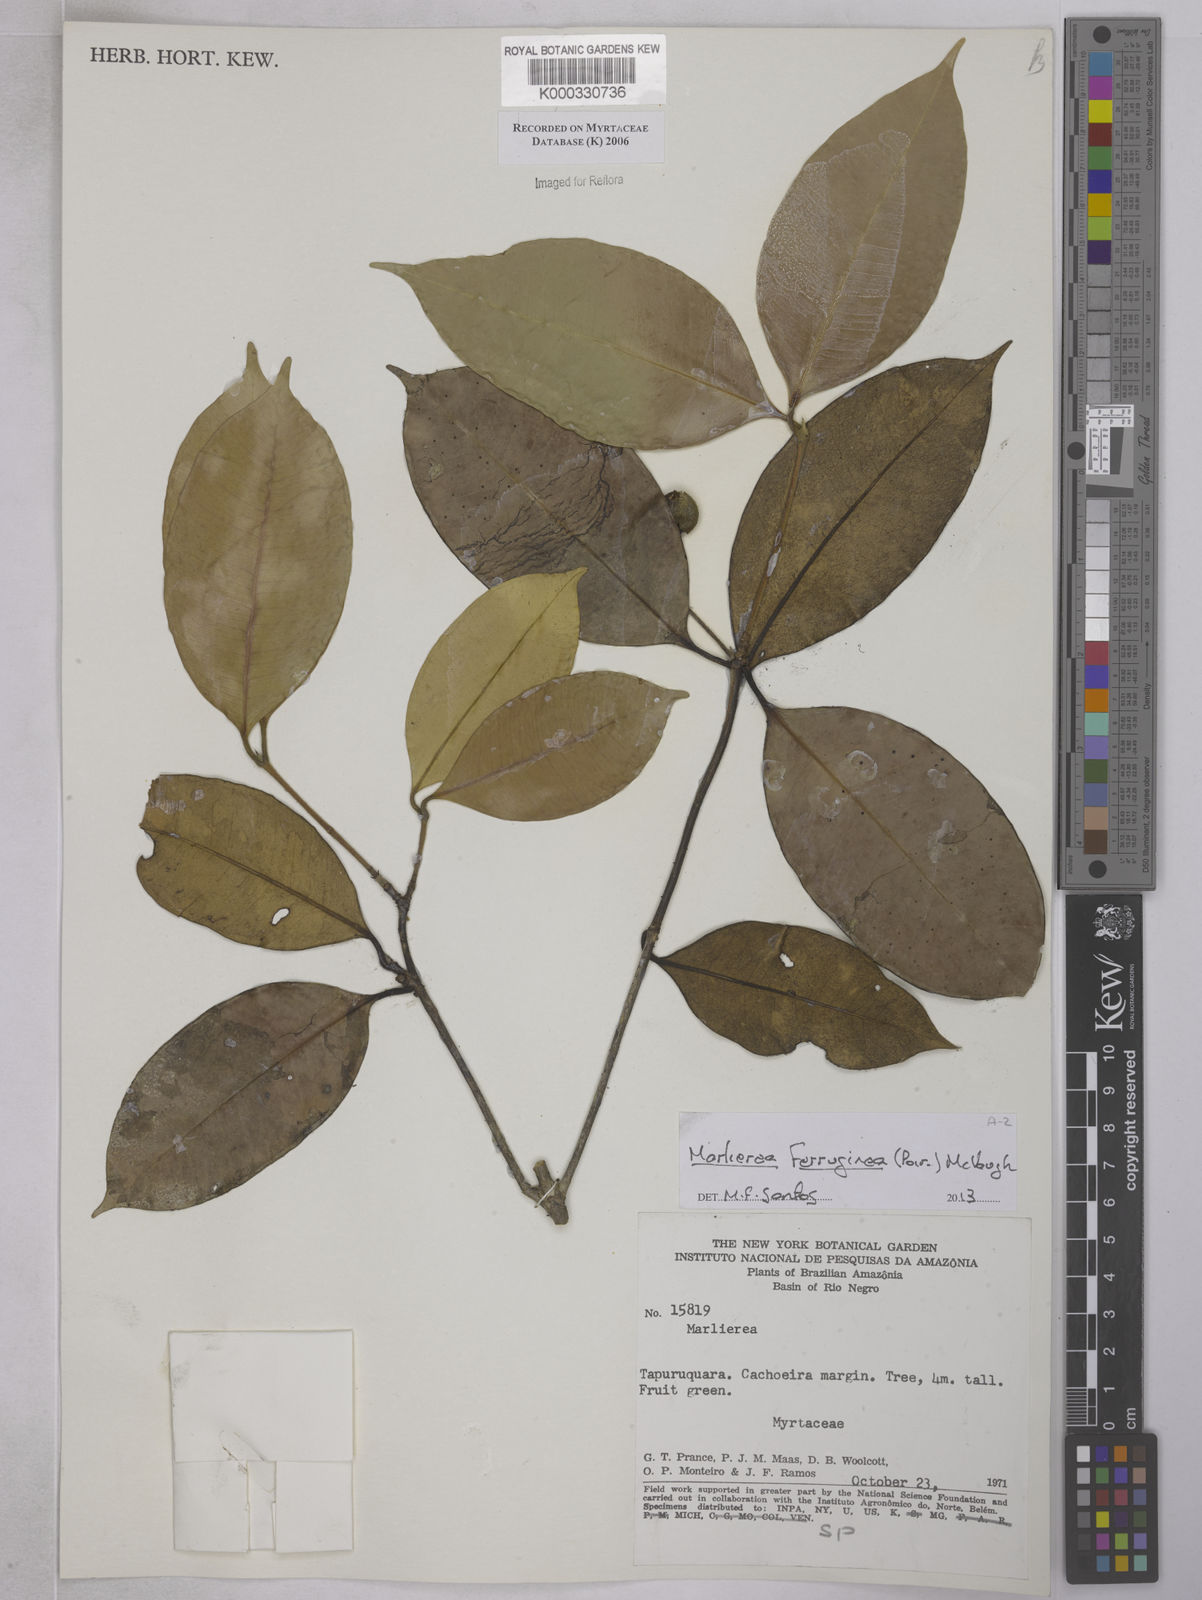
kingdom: Plantae
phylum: Tracheophyta
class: Magnoliopsida
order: Myrtales
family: Myrtaceae
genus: Marlierea
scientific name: Marlierea
